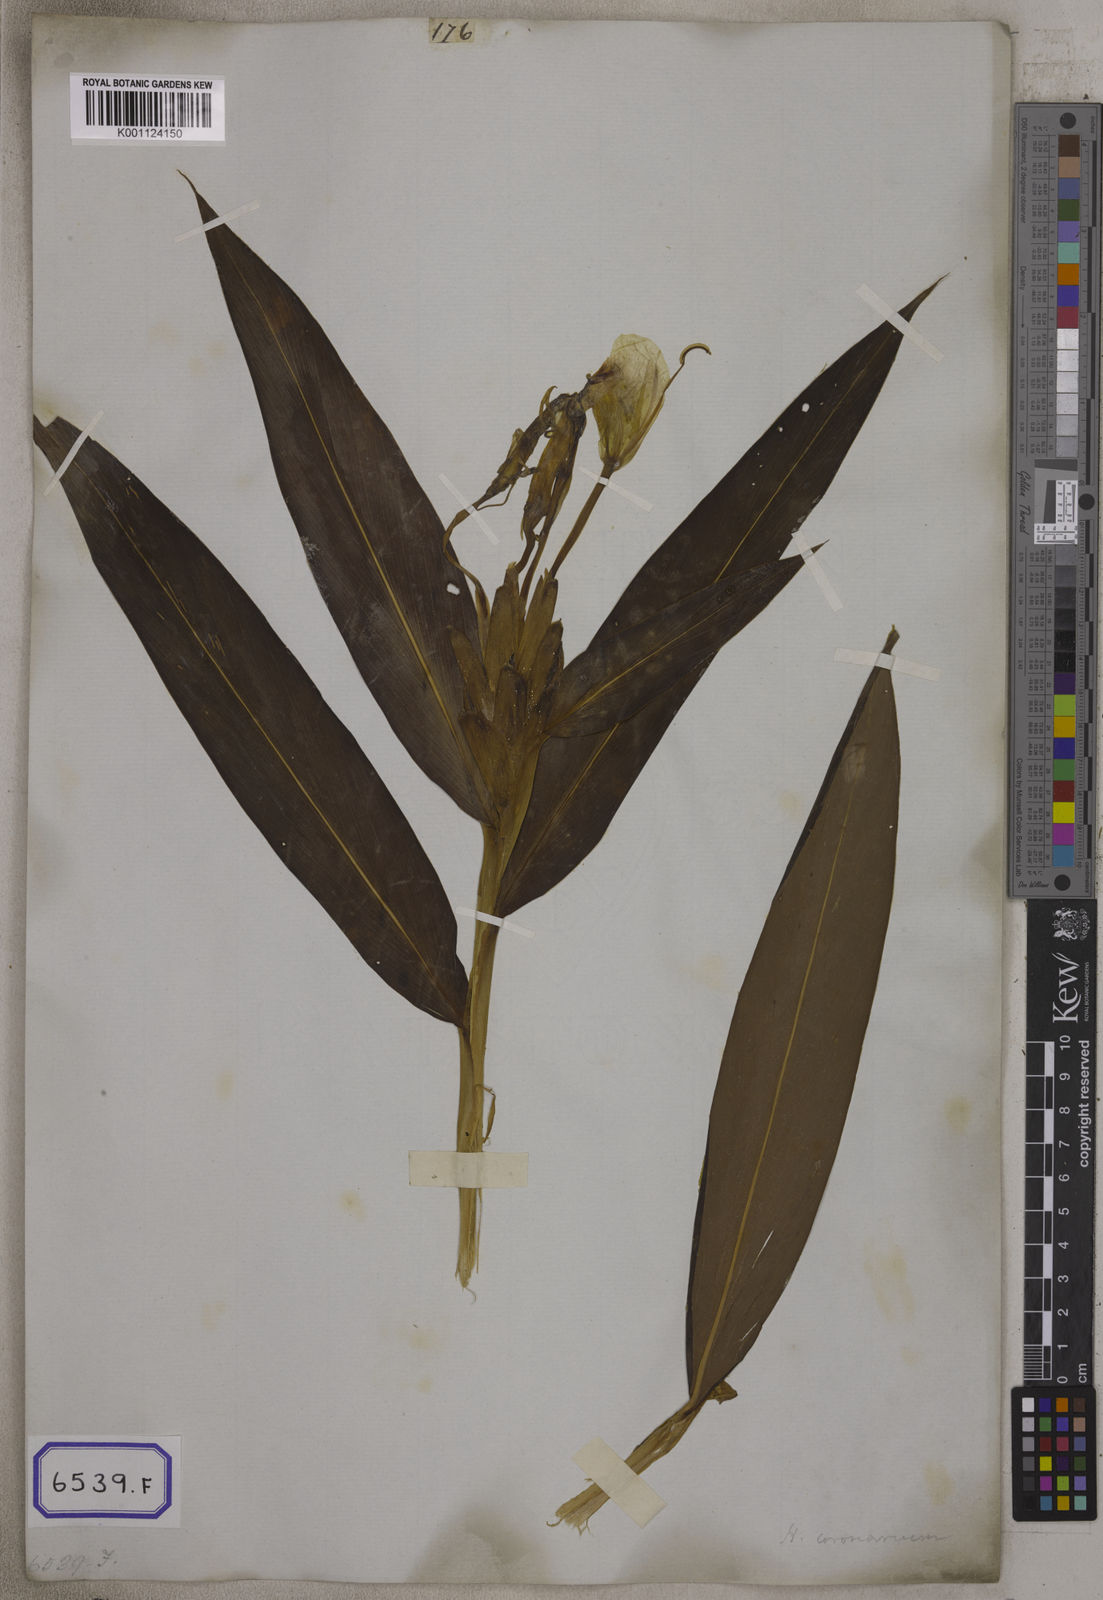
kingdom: Plantae
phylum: Tracheophyta
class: Liliopsida
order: Zingiberales
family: Zingiberaceae
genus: Hedychium
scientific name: Hedychium coronarium
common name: White garland-lily
